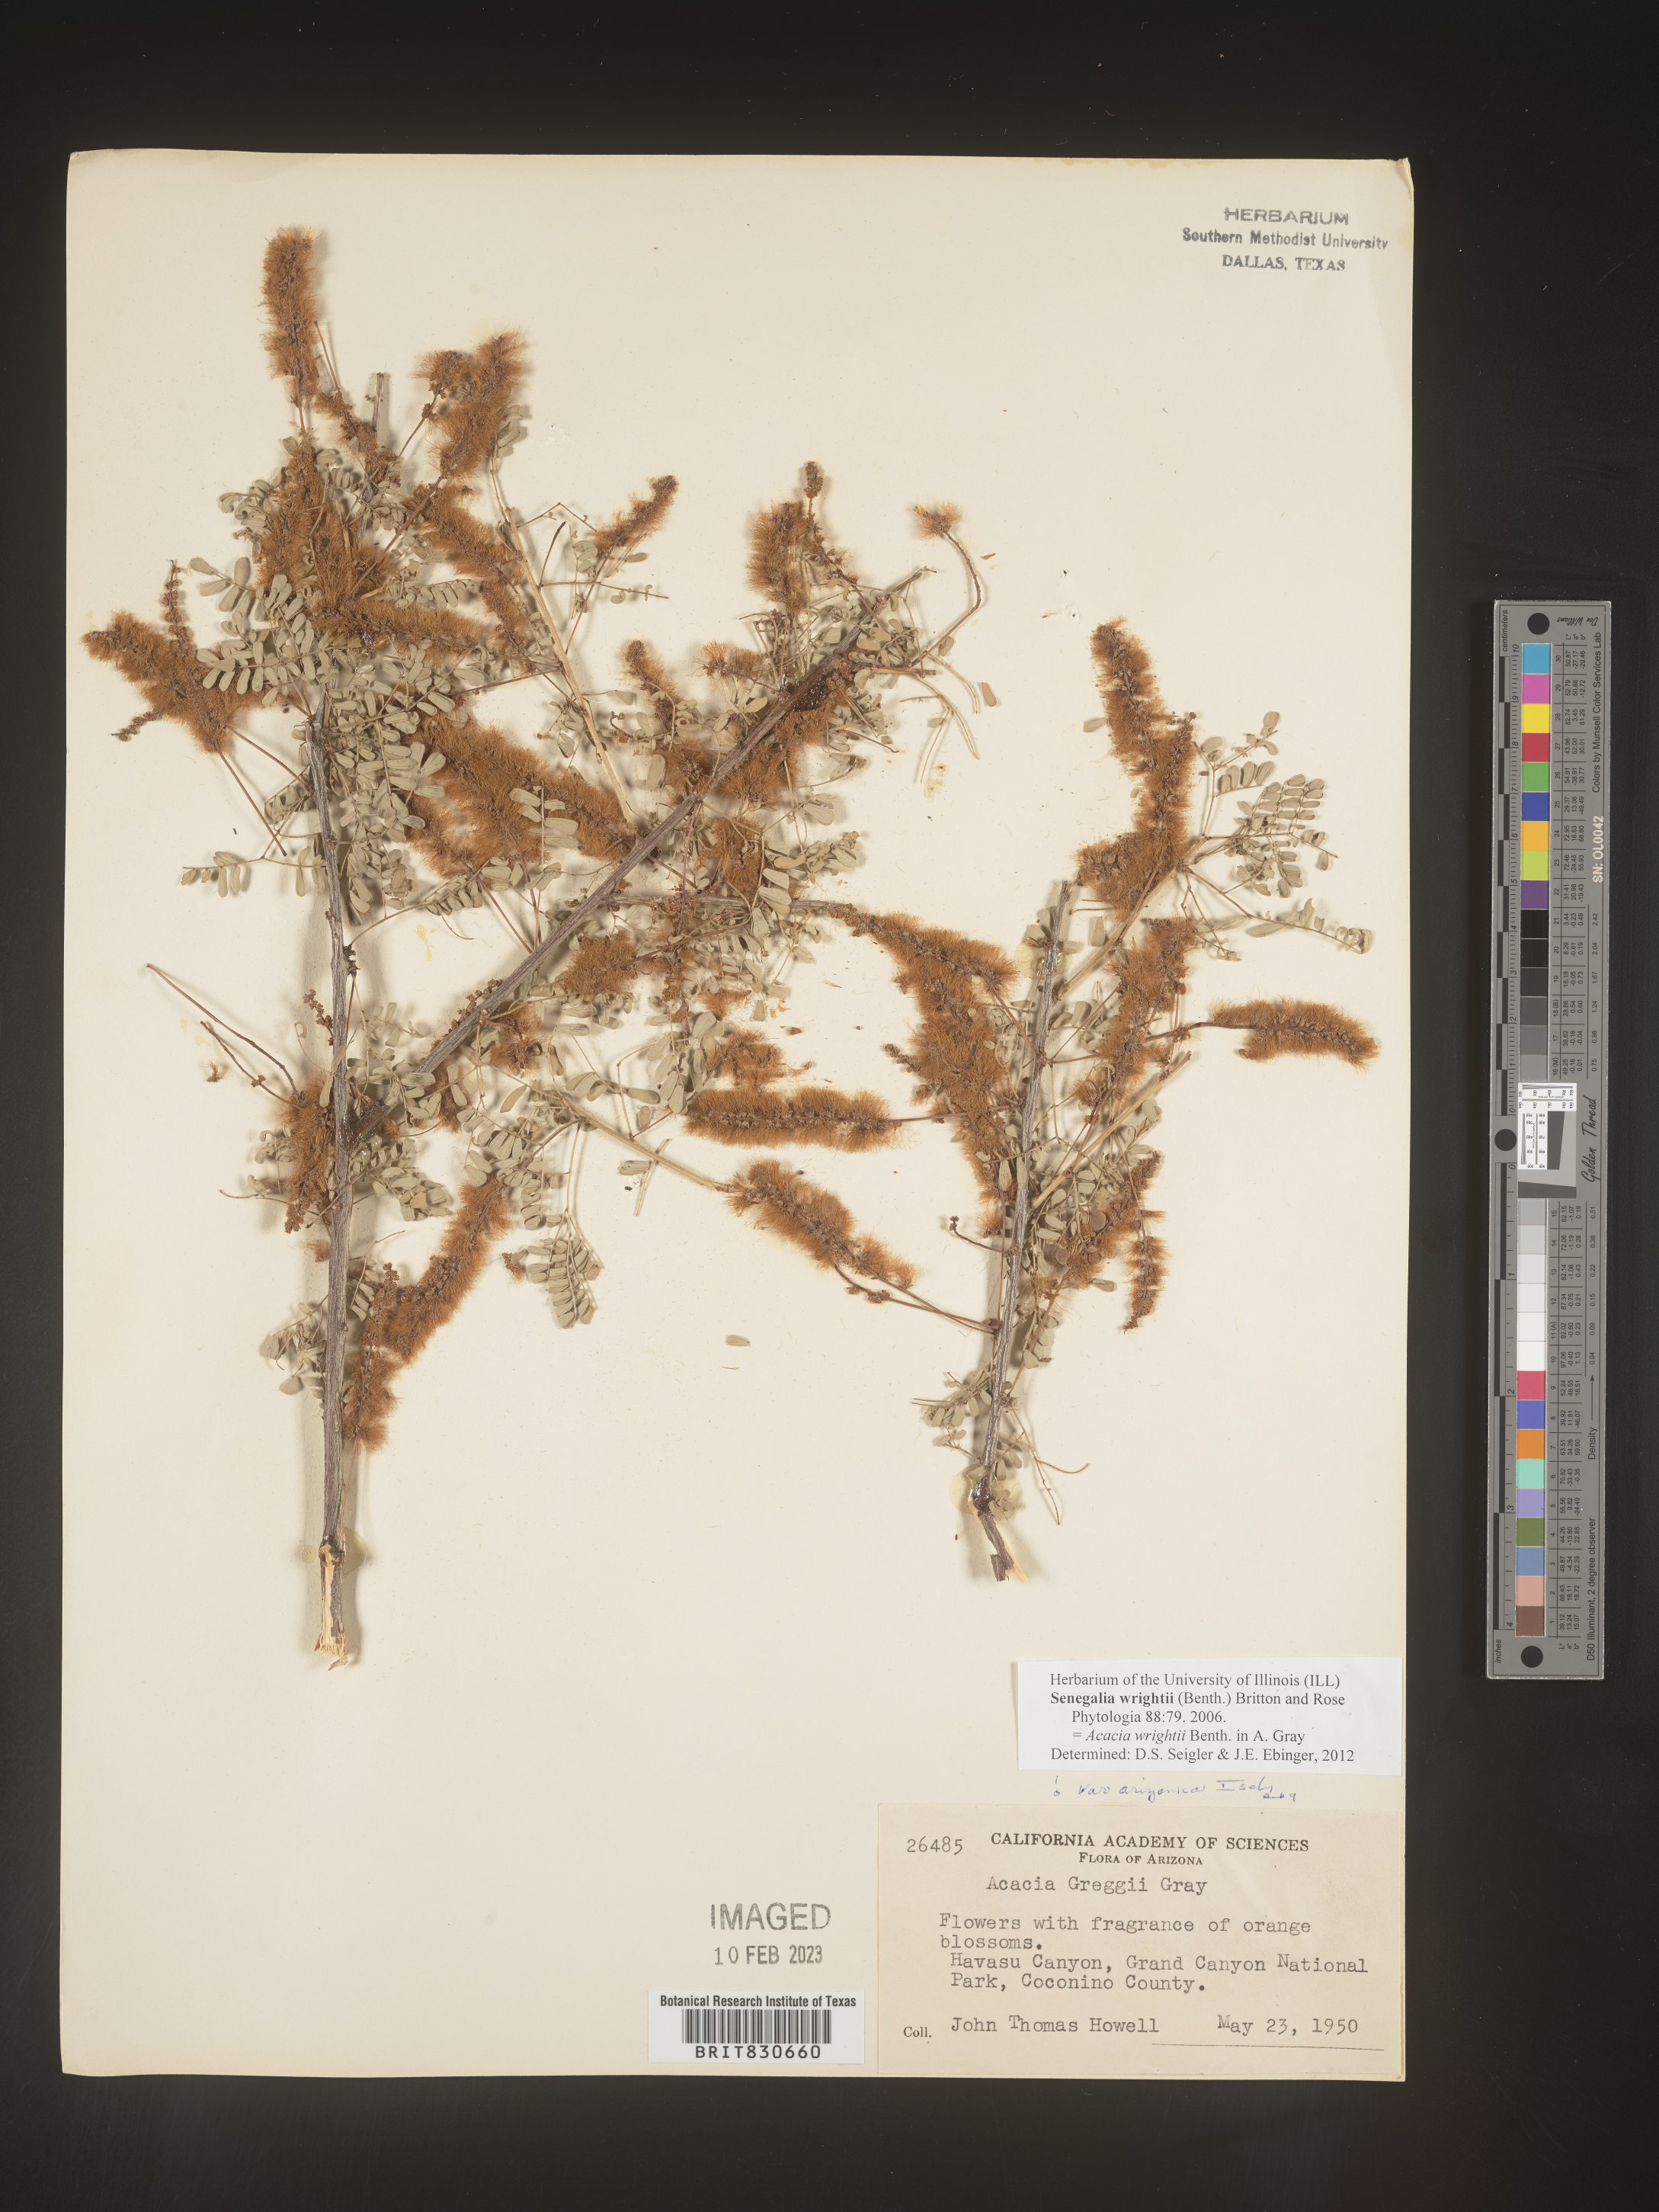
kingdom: Plantae
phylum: Tracheophyta
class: Magnoliopsida
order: Fabales
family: Fabaceae
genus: Senegalia
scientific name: Senegalia wrightii
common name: Texas cat's-claw
